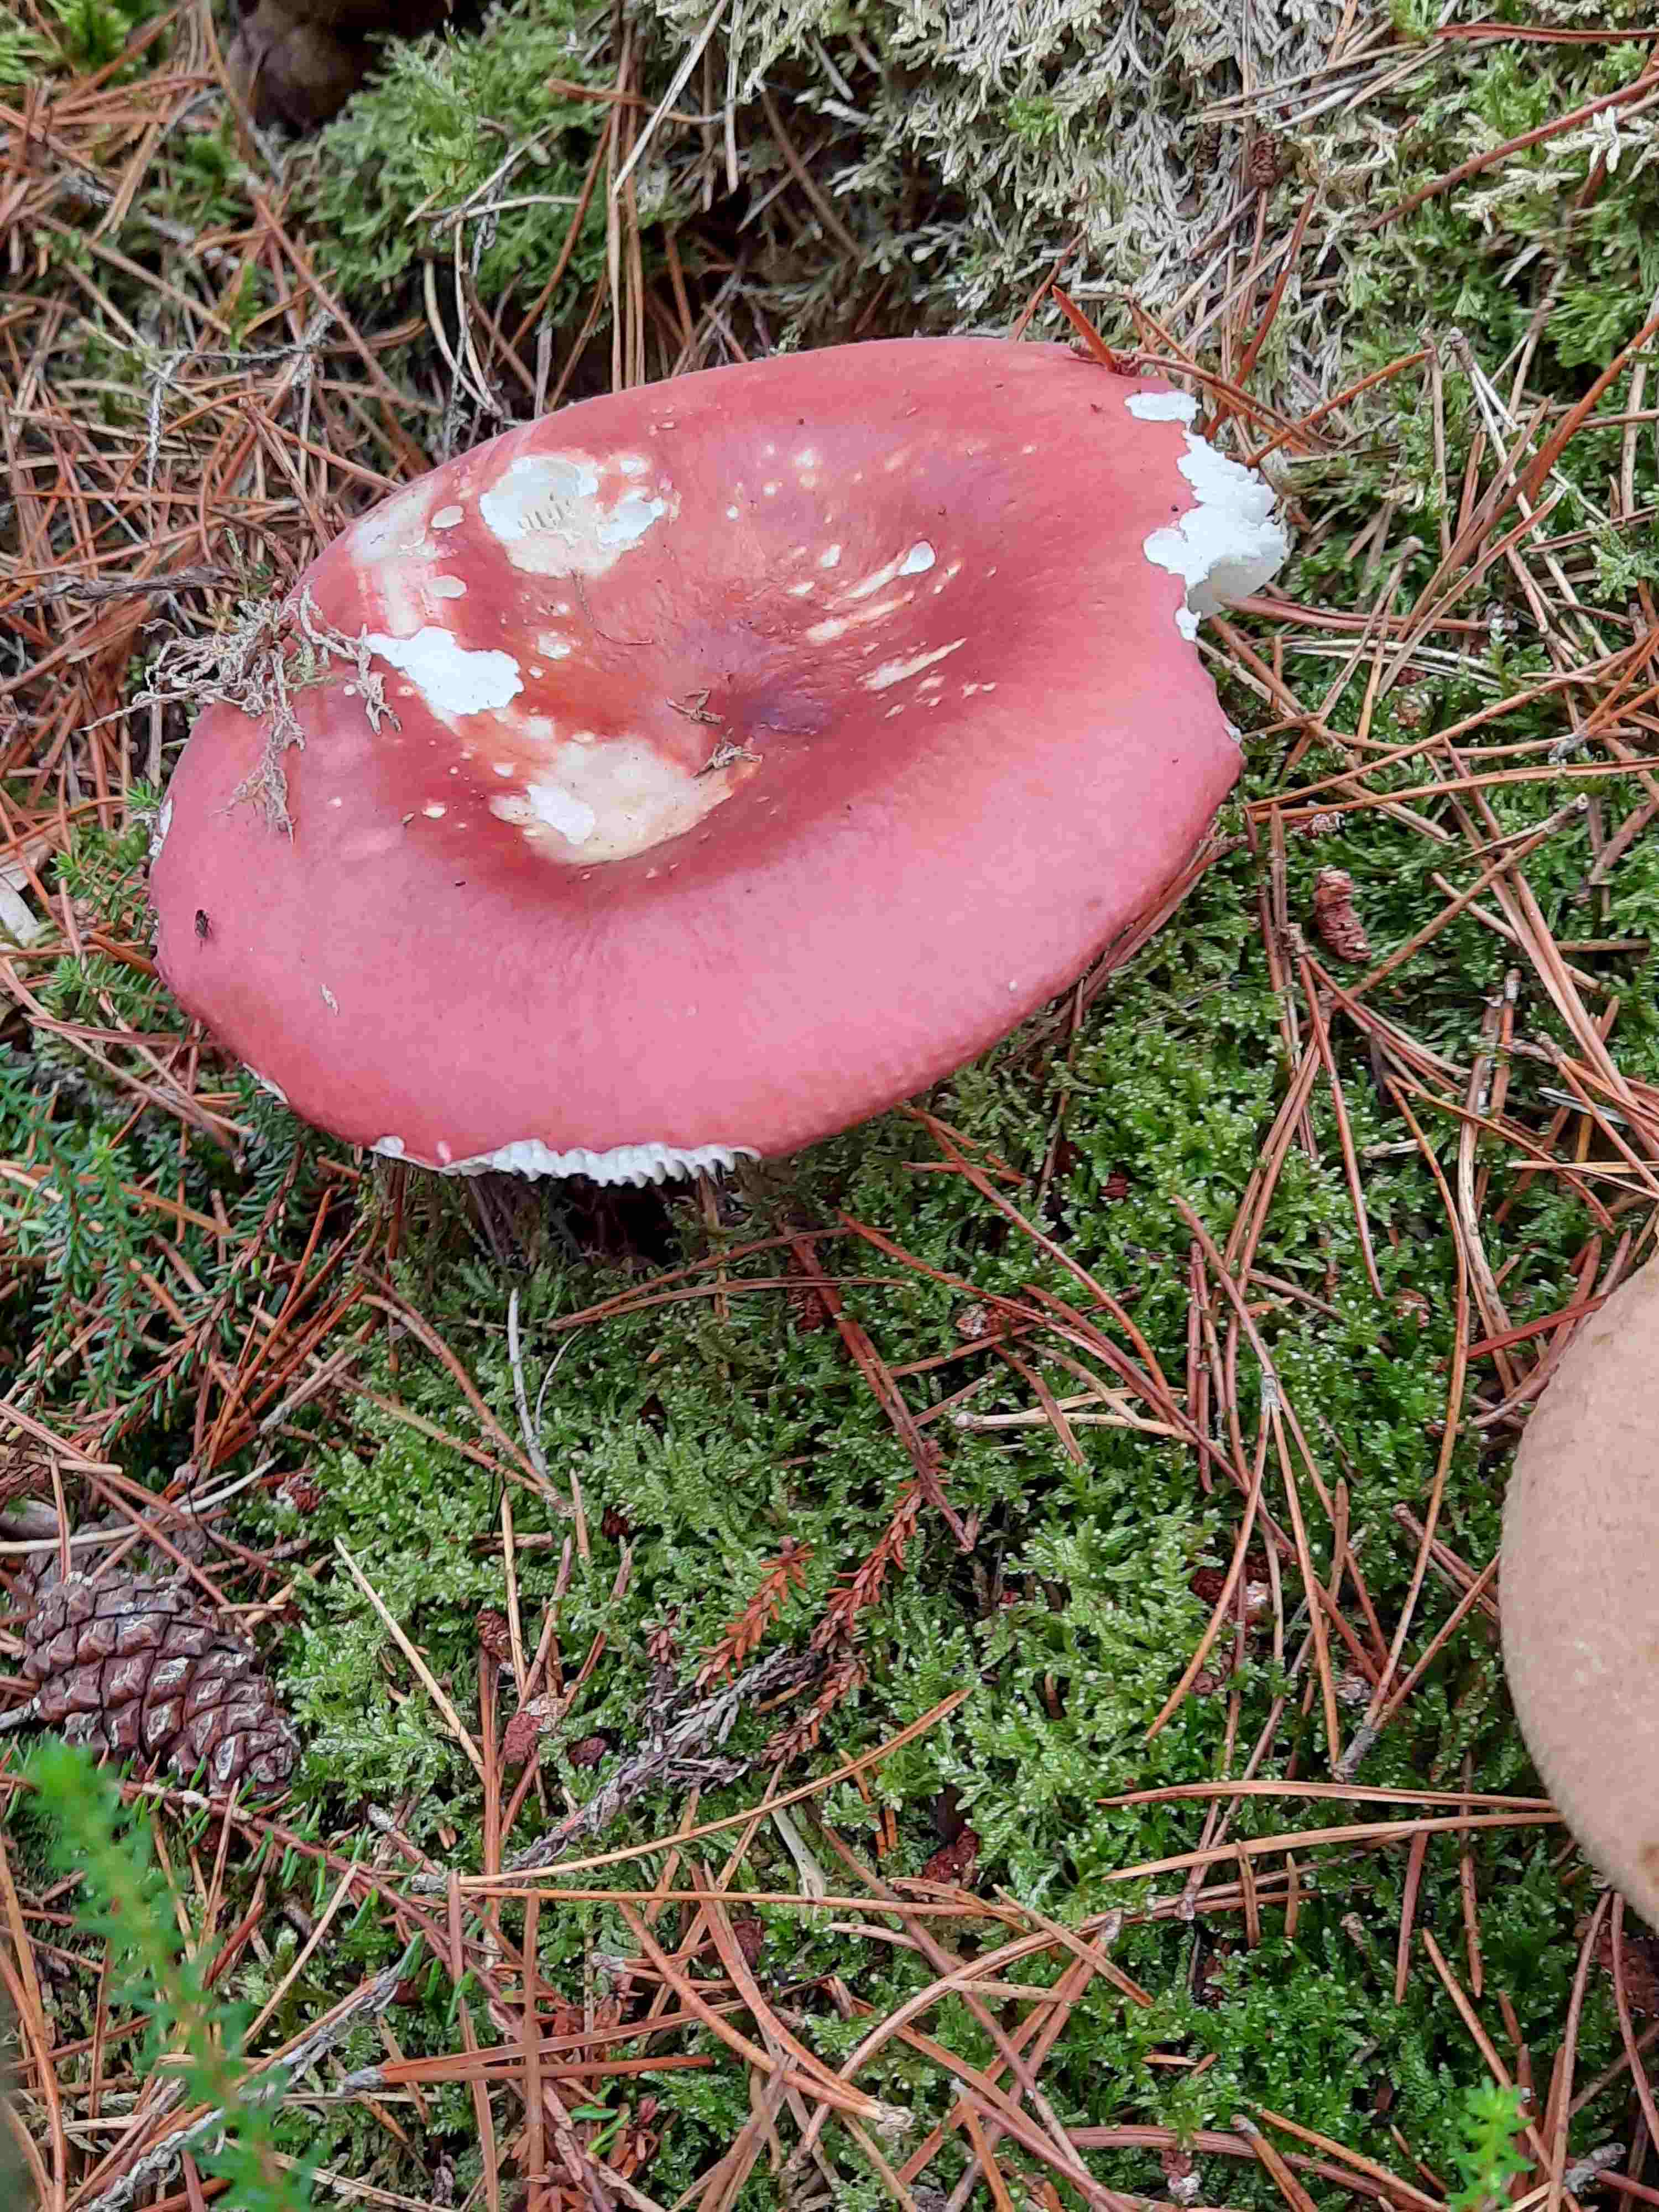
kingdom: Fungi
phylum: Basidiomycota
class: Agaricomycetes
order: Russulales
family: Russulaceae
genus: Russula
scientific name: Russula paludosa
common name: prægtig skørhat
